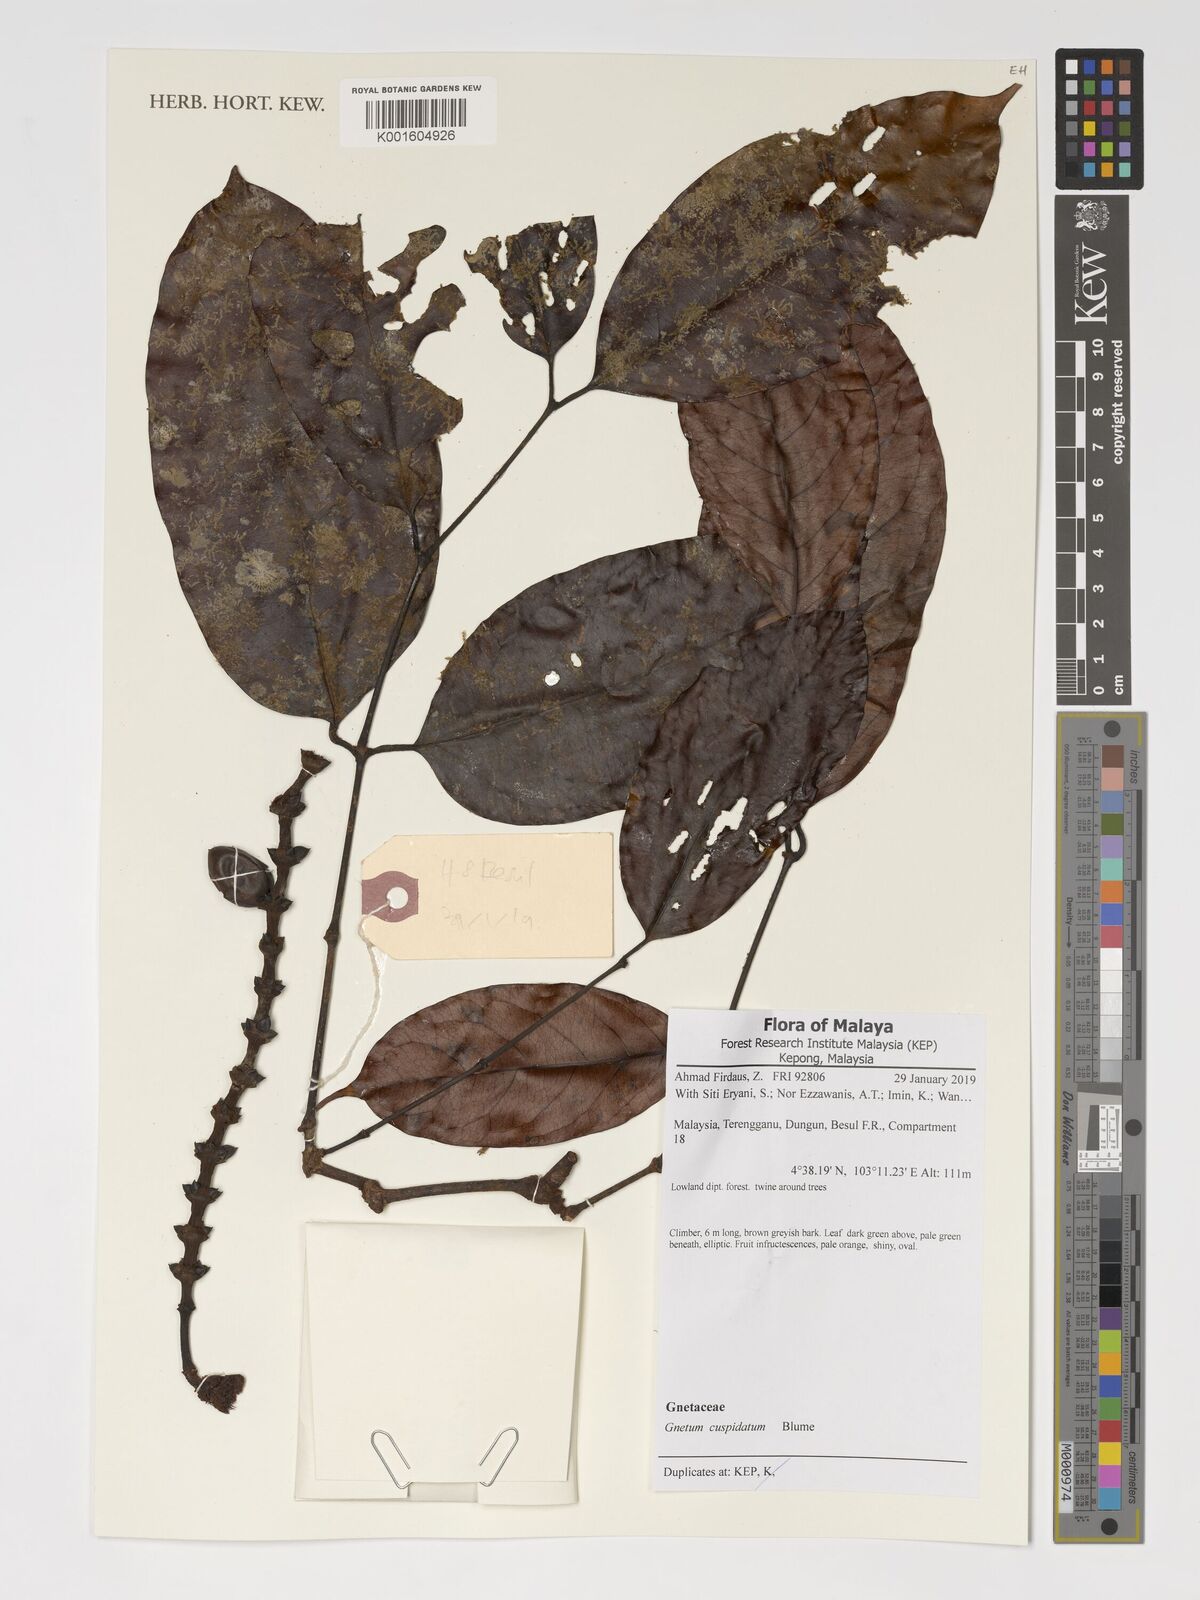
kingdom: Plantae
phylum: Tracheophyta
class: Gnetopsida
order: Gnetales
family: Gnetaceae
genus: Gnetum
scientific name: Gnetum cuspidatum
